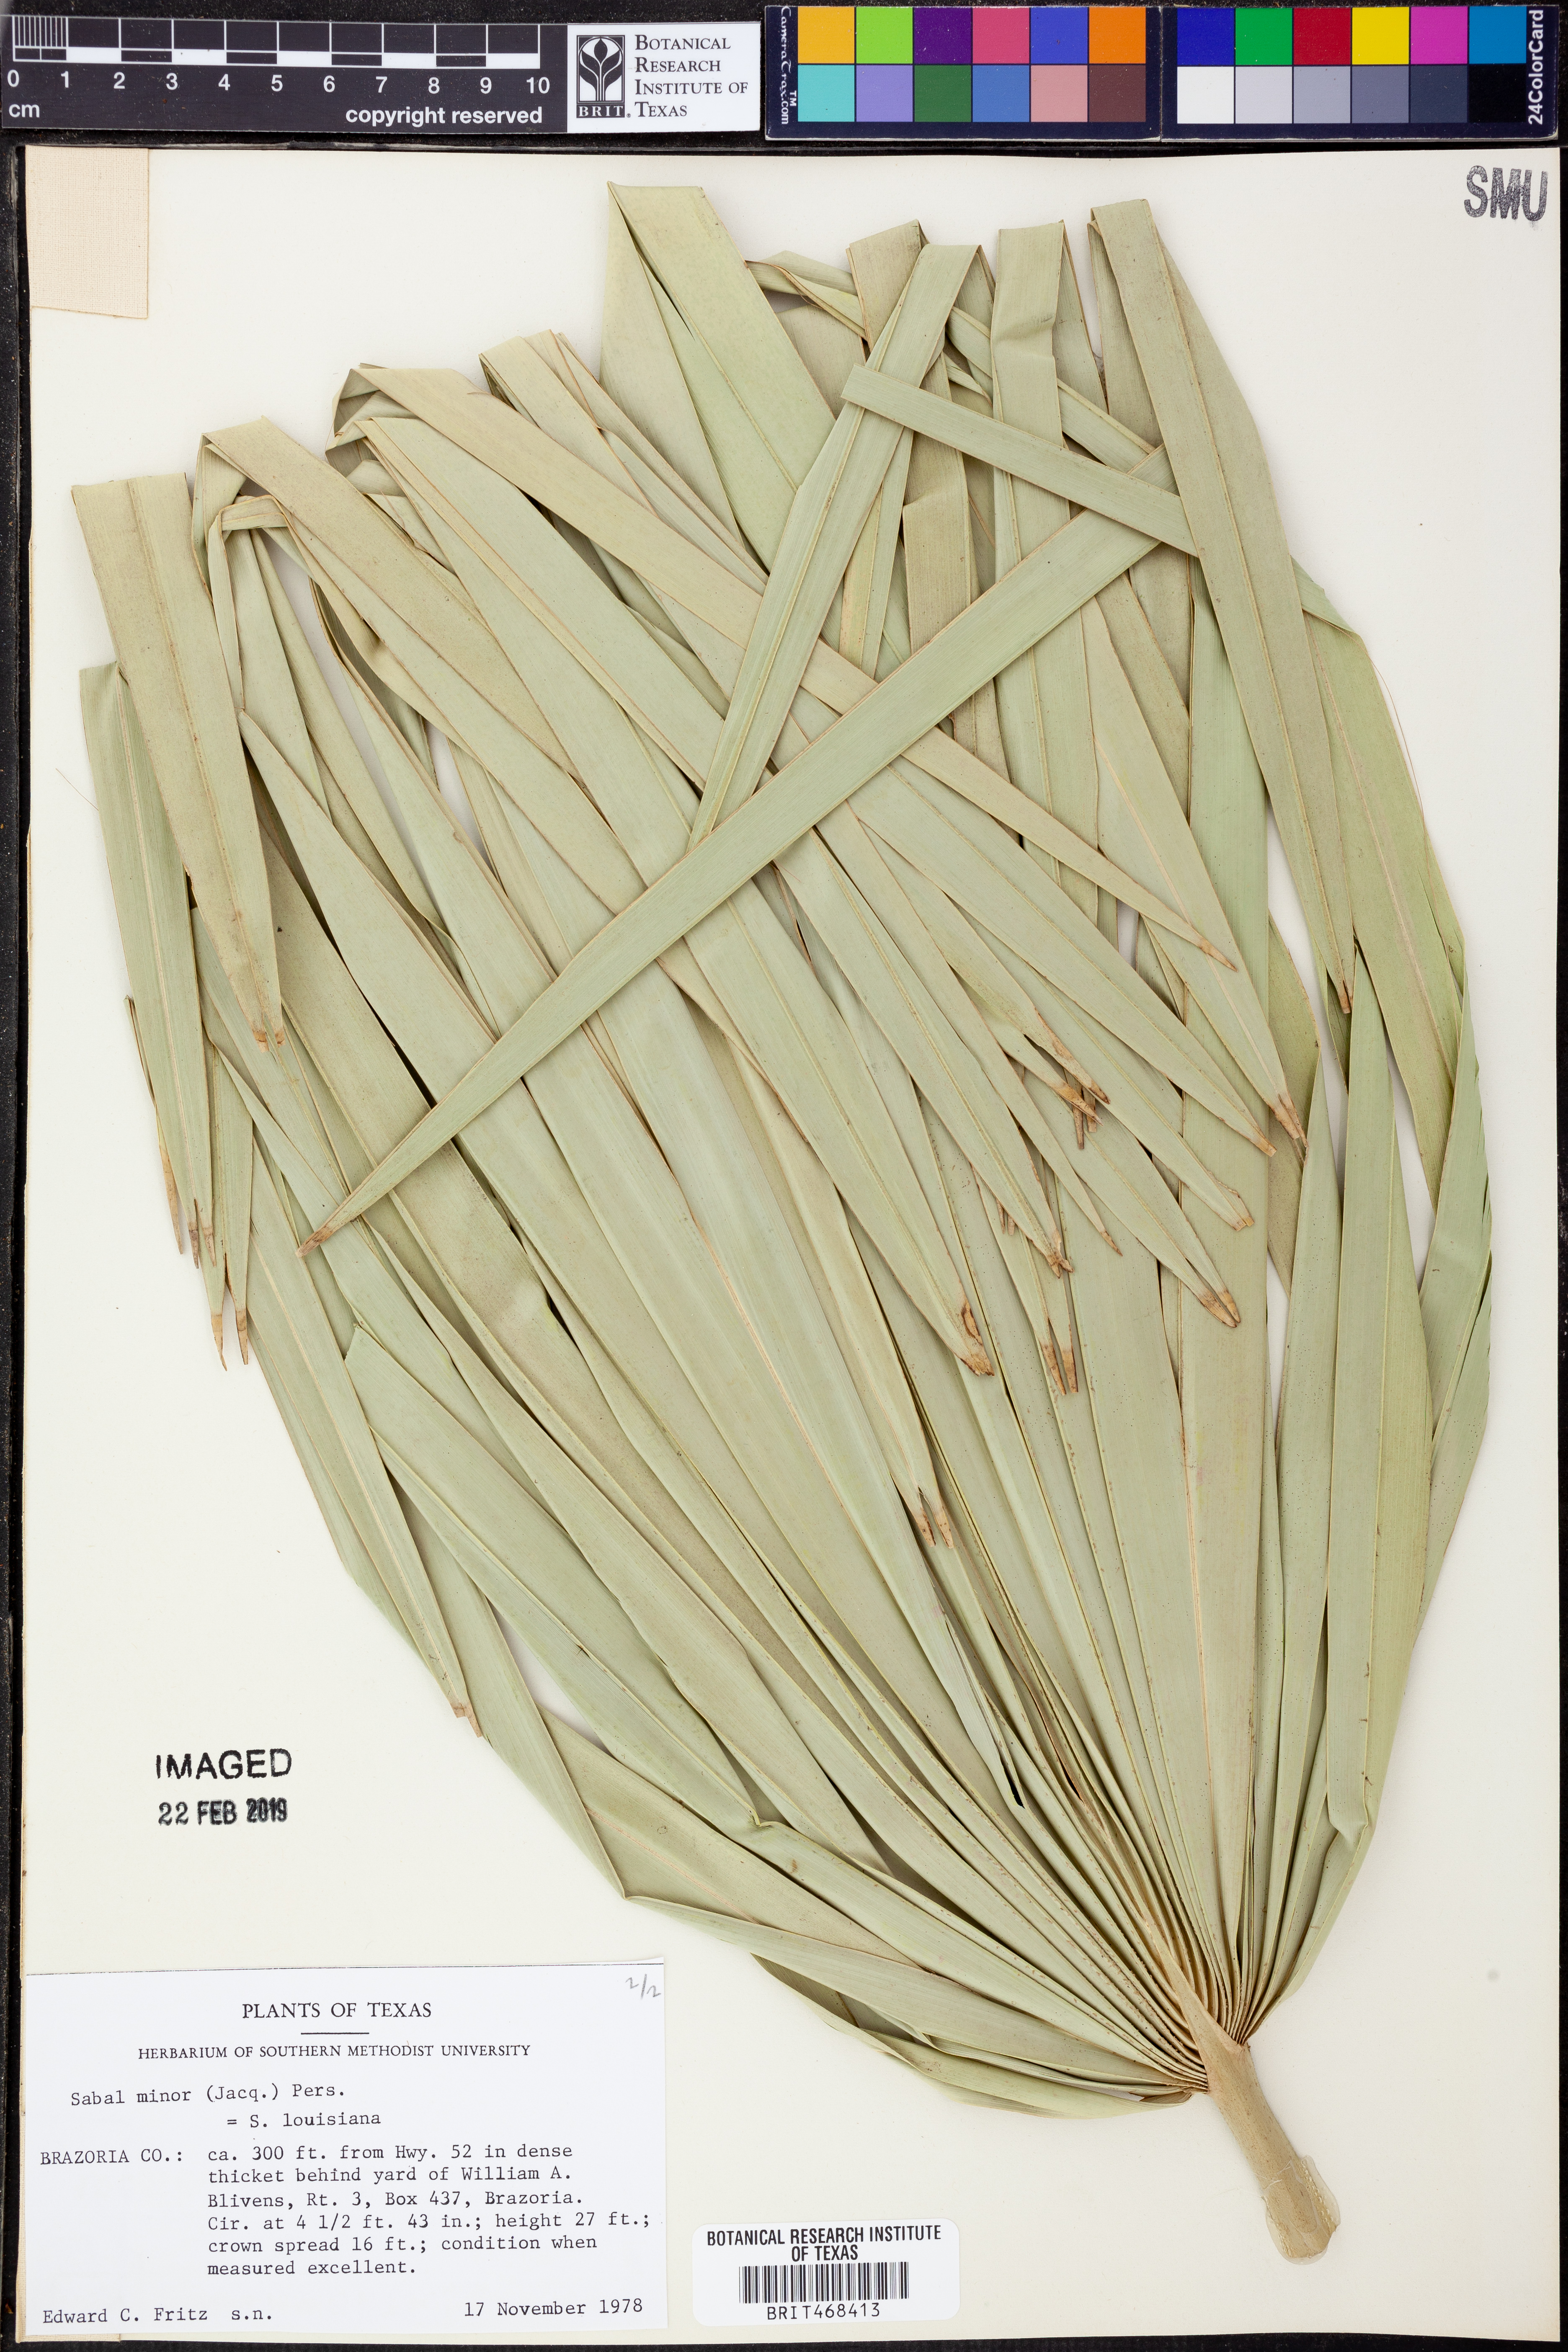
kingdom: Plantae
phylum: Tracheophyta
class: Liliopsida
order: Arecales
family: Arecaceae
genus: Sabal
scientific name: Sabal brazoriensis
